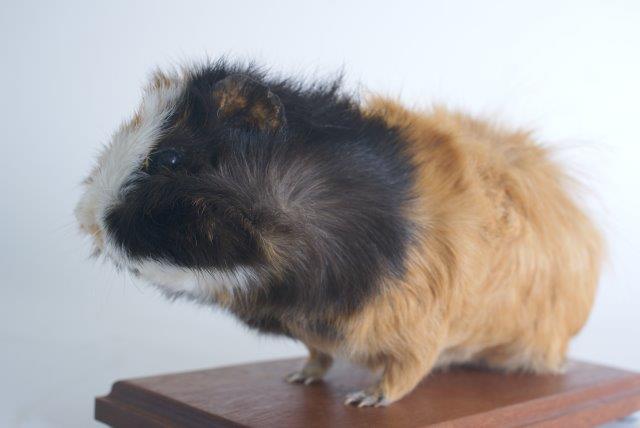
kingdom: Animalia
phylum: Chordata
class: Mammalia
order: Rodentia
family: Caviidae
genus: Cavia
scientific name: Cavia aperea
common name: Brazilian Guinea Pig
